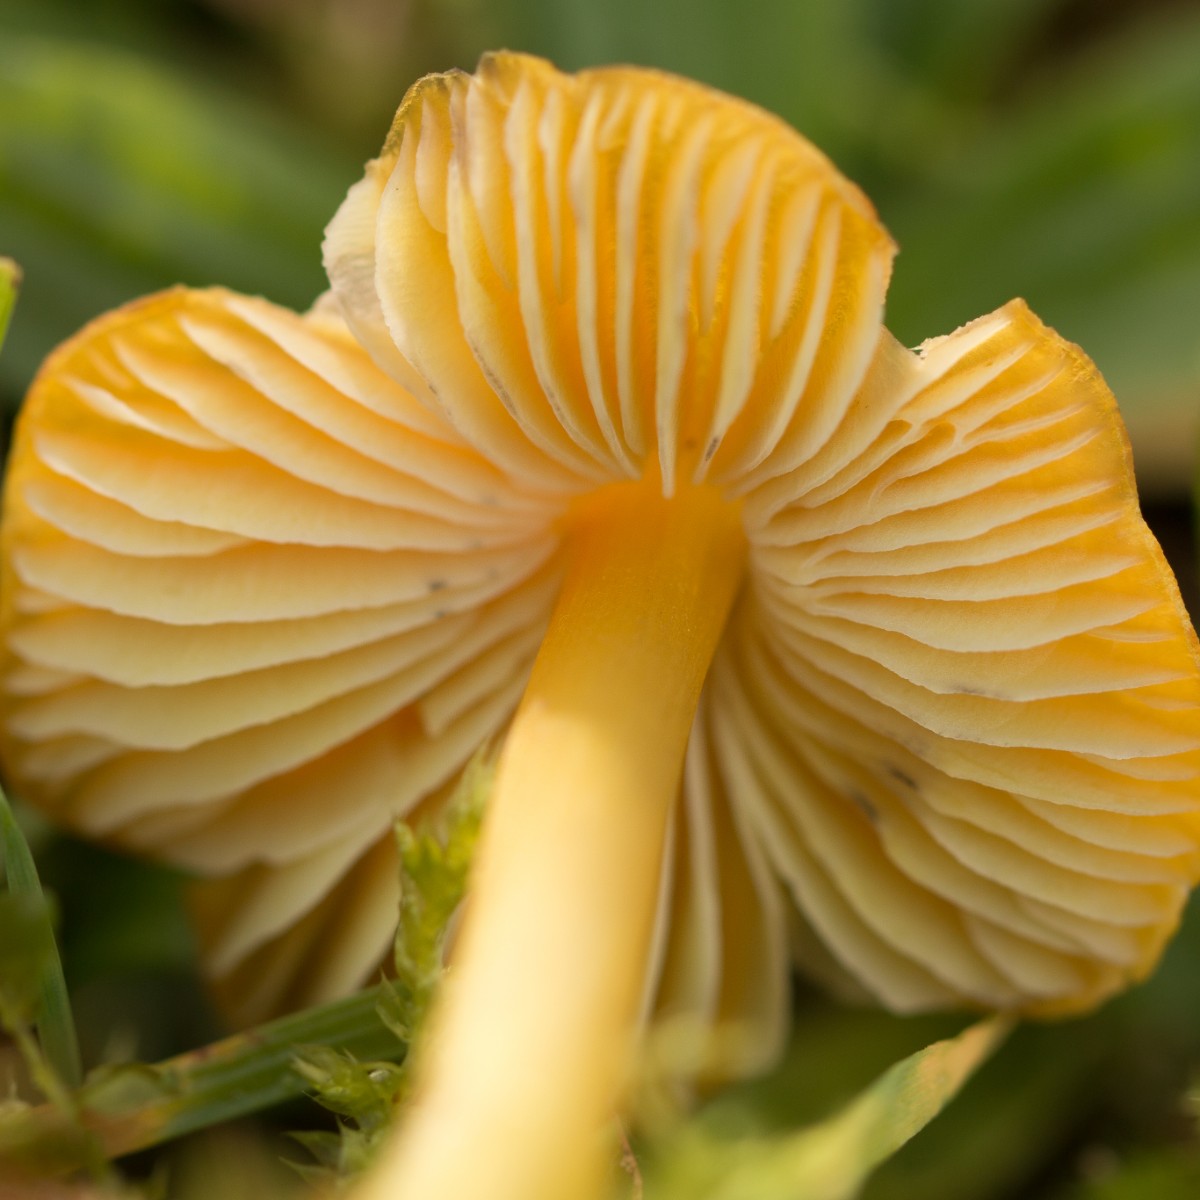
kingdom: Fungi
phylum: Basidiomycota
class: Agaricomycetes
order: Agaricales
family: Hygrophoraceae
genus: Hygrocybe
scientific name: Hygrocybe conica
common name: kegle-vokshat
